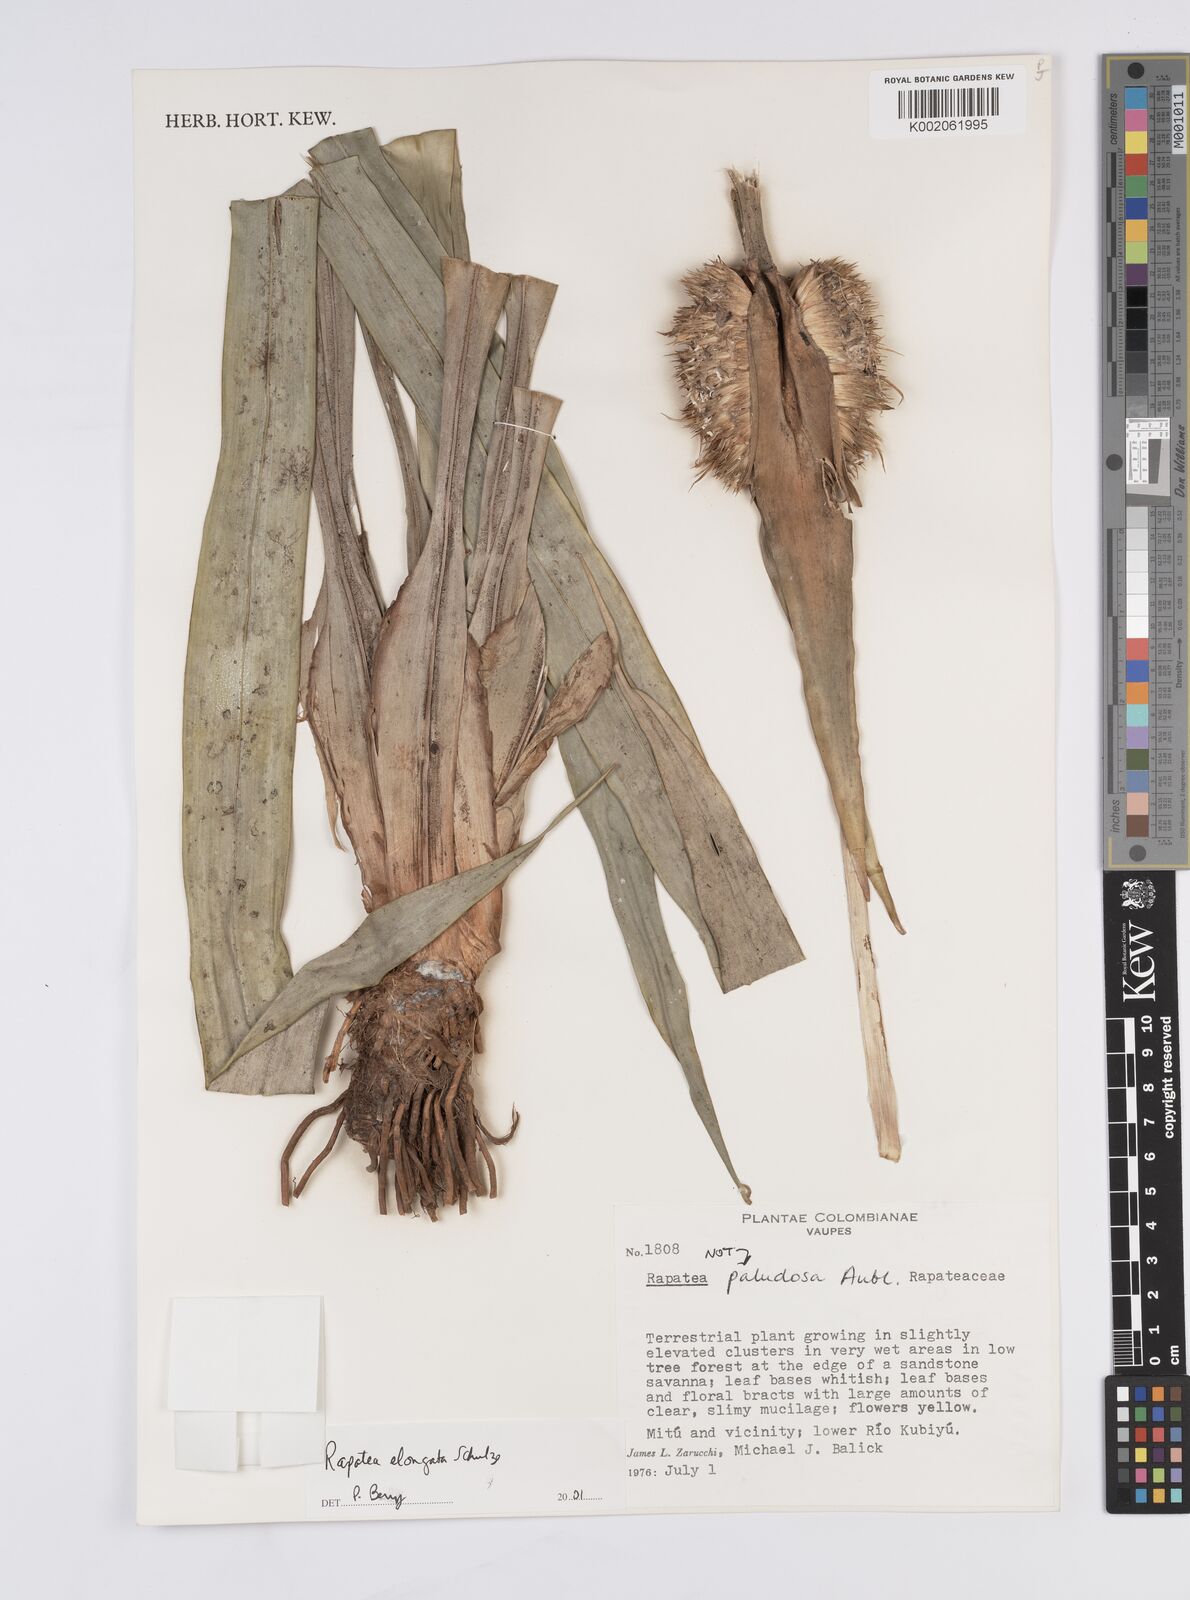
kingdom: Plantae
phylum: Tracheophyta
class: Liliopsida
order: Poales
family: Rapateaceae
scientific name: Rapateaceae
